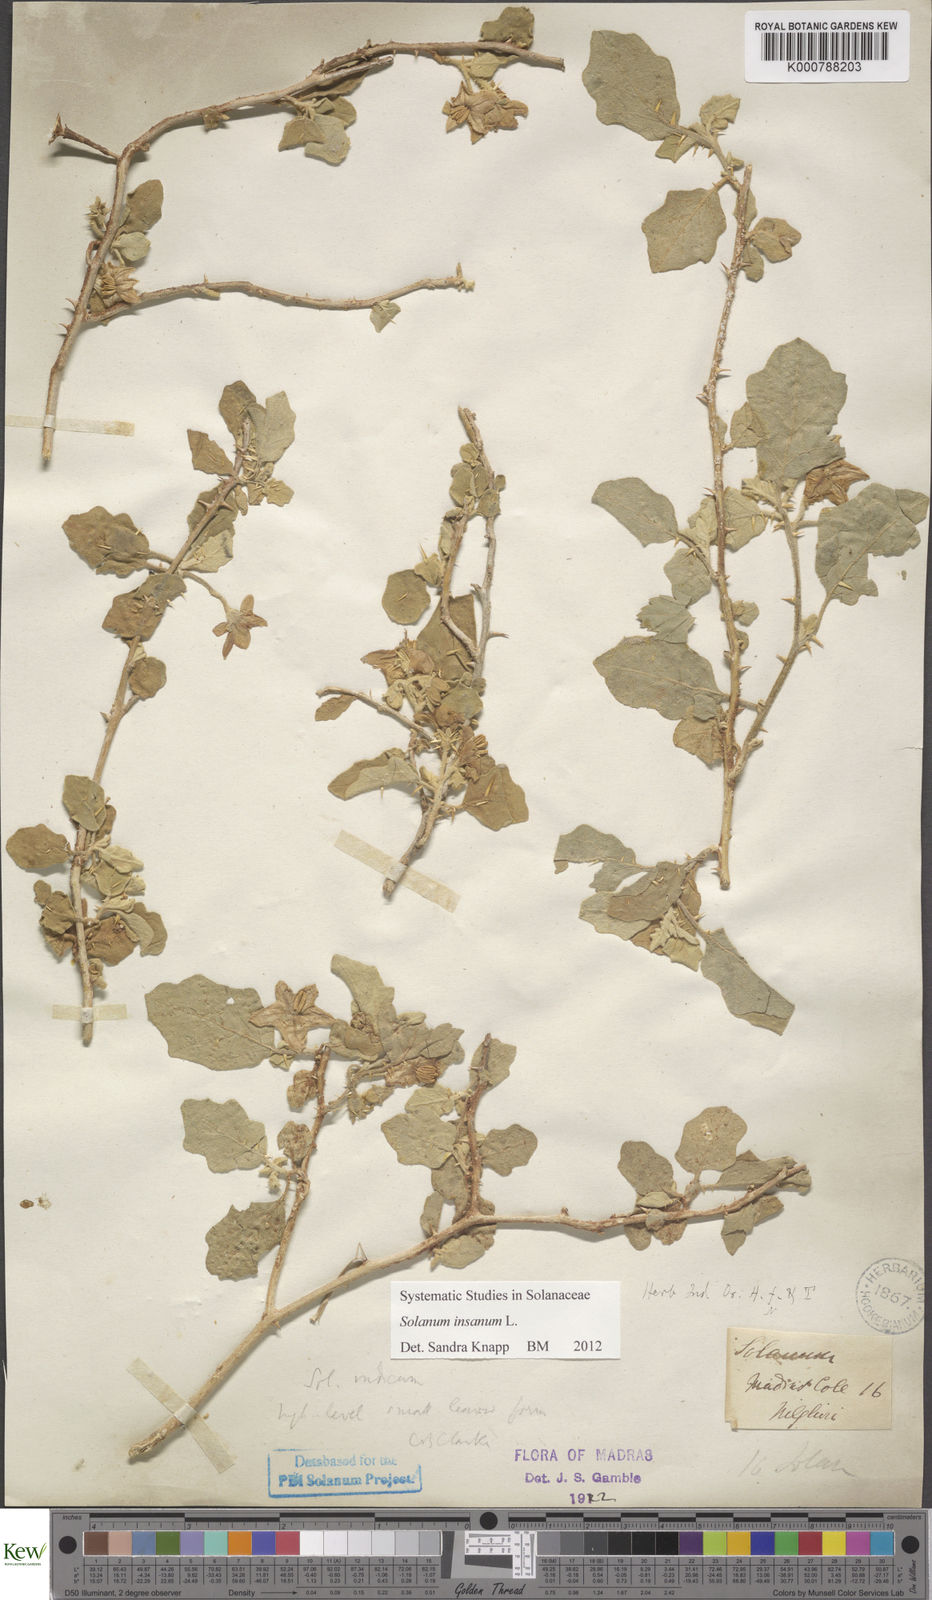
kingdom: Plantae
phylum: Tracheophyta
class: Magnoliopsida
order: Solanales
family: Solanaceae
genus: Solanum
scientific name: Solanum insanum
